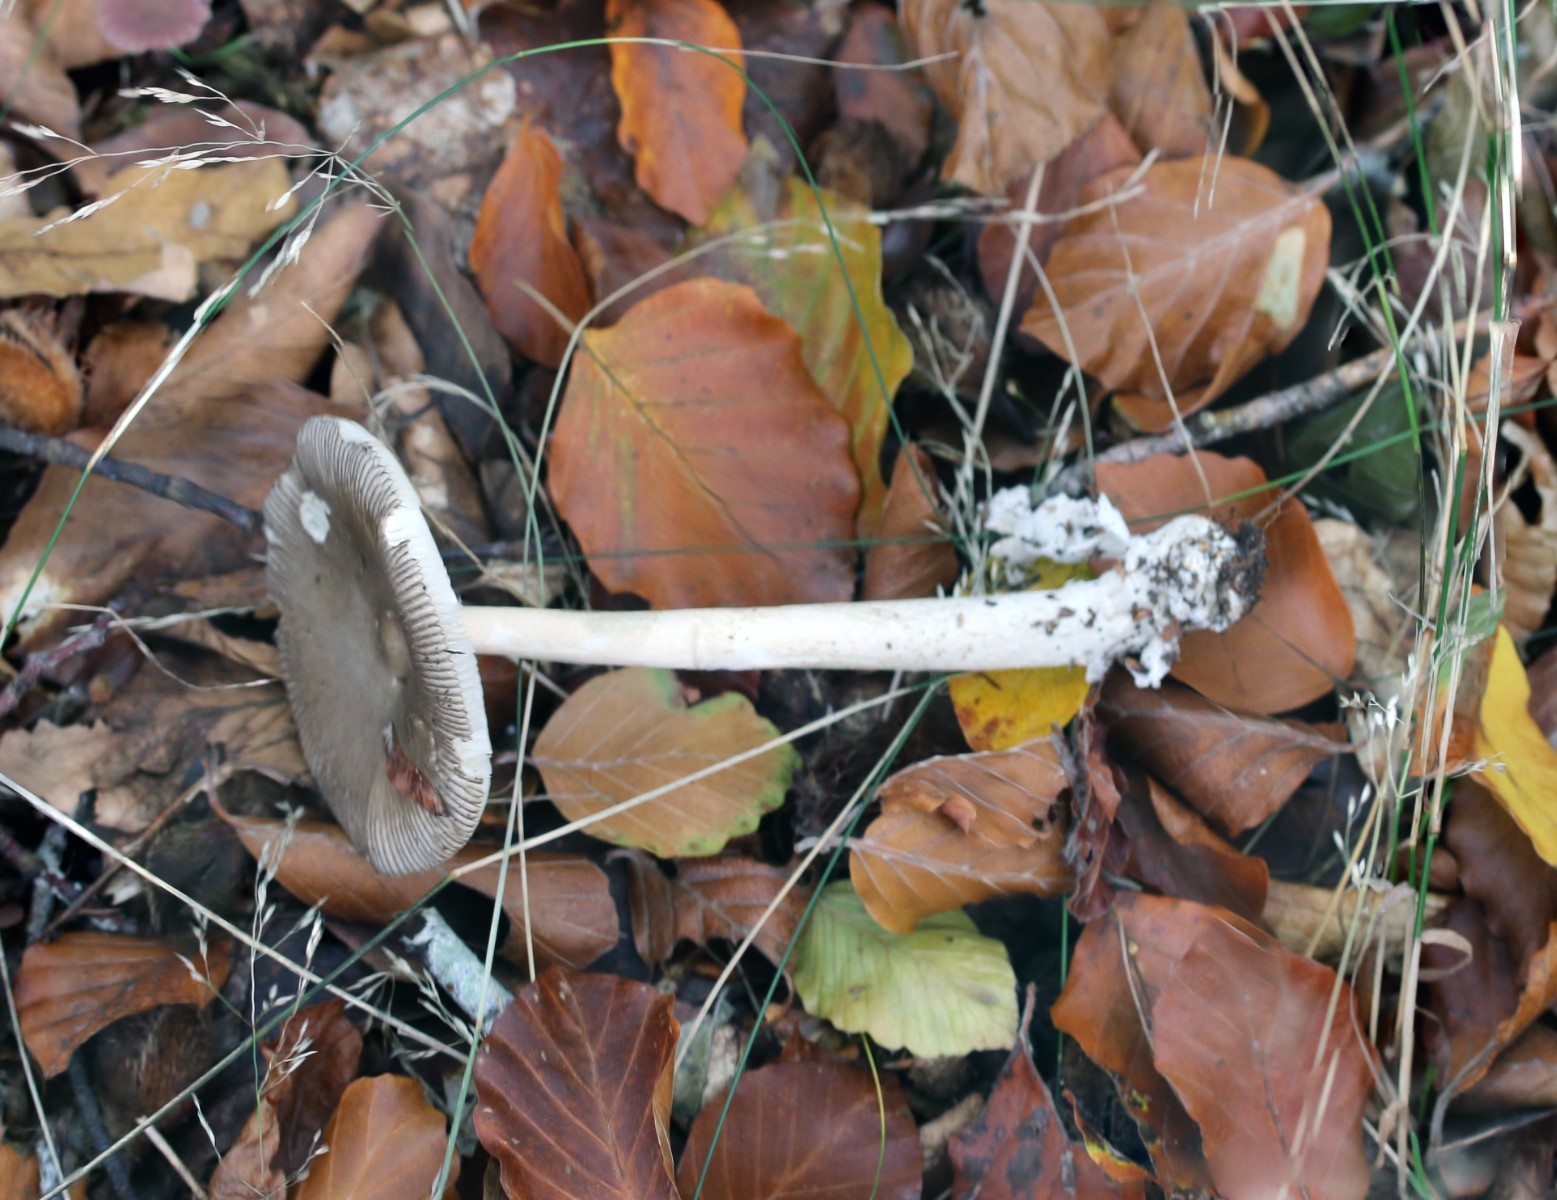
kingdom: Fungi
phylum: Basidiomycota
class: Agaricomycetes
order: Agaricales
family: Amanitaceae
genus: Amanita
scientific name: Amanita vaginata
